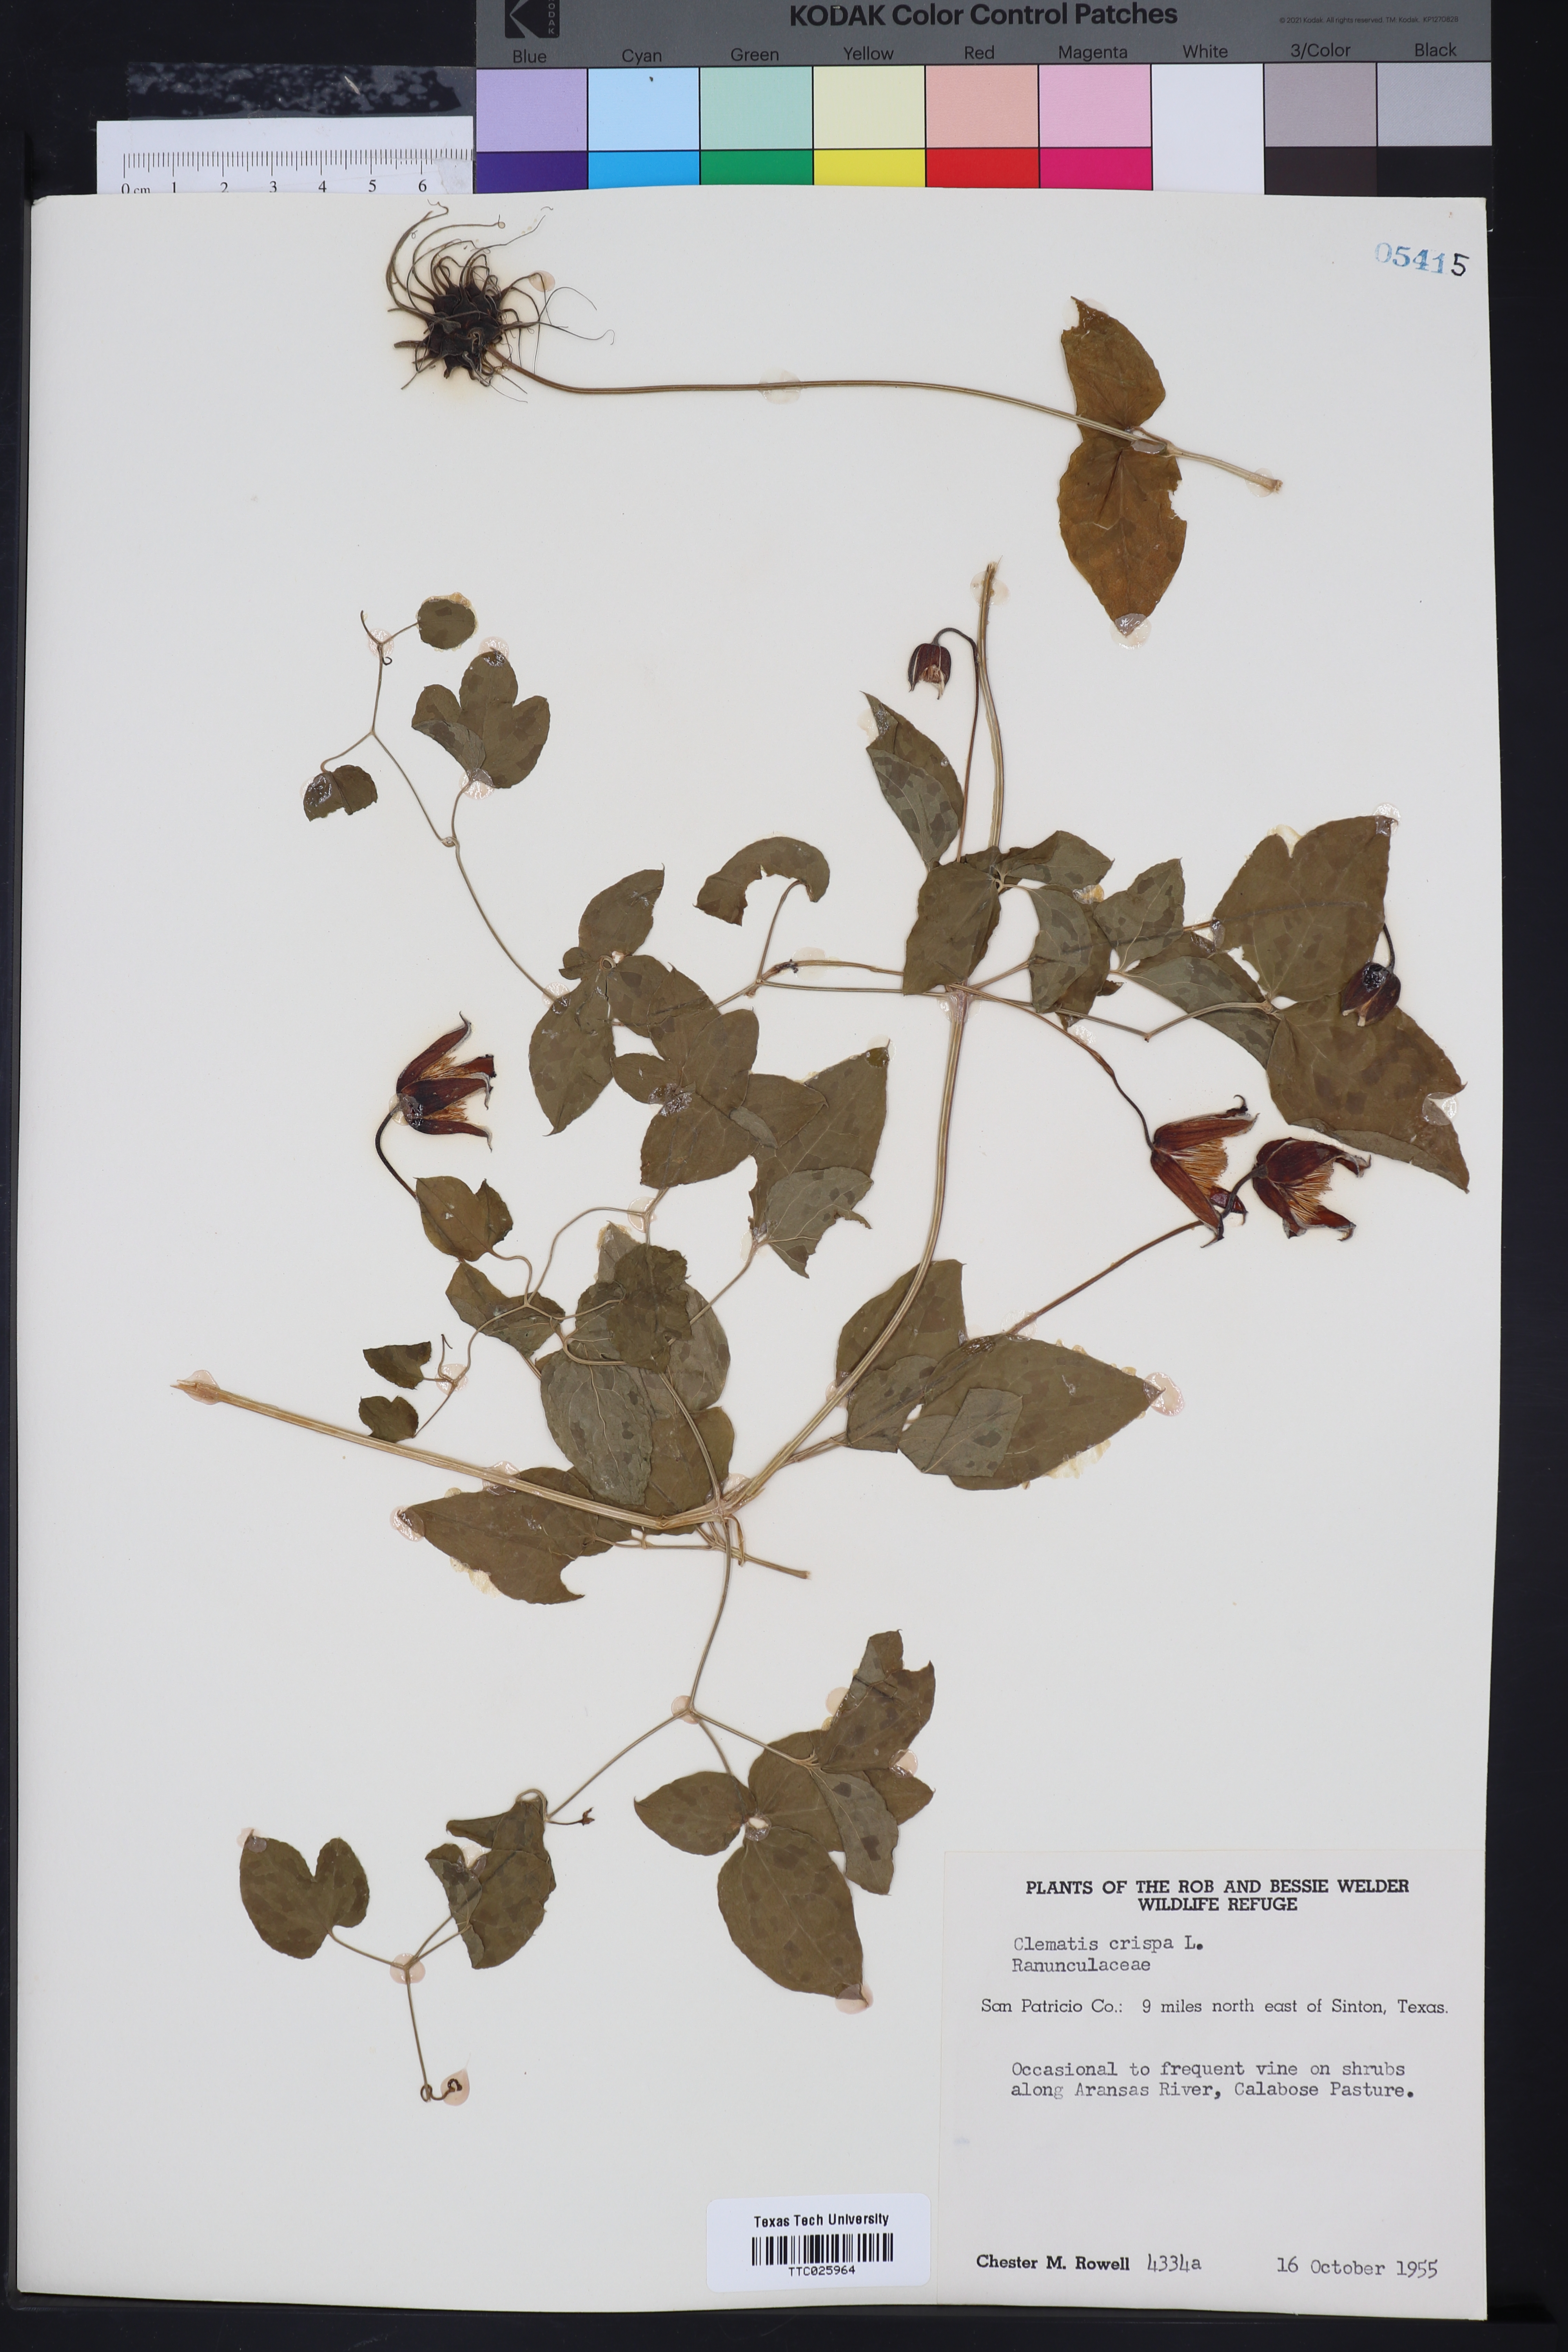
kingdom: Plantae
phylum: Tracheophyta
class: Magnoliopsida
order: Ranunculales
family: Ranunculaceae
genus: Clematis
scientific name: Clematis crispa
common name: Curly clematis
